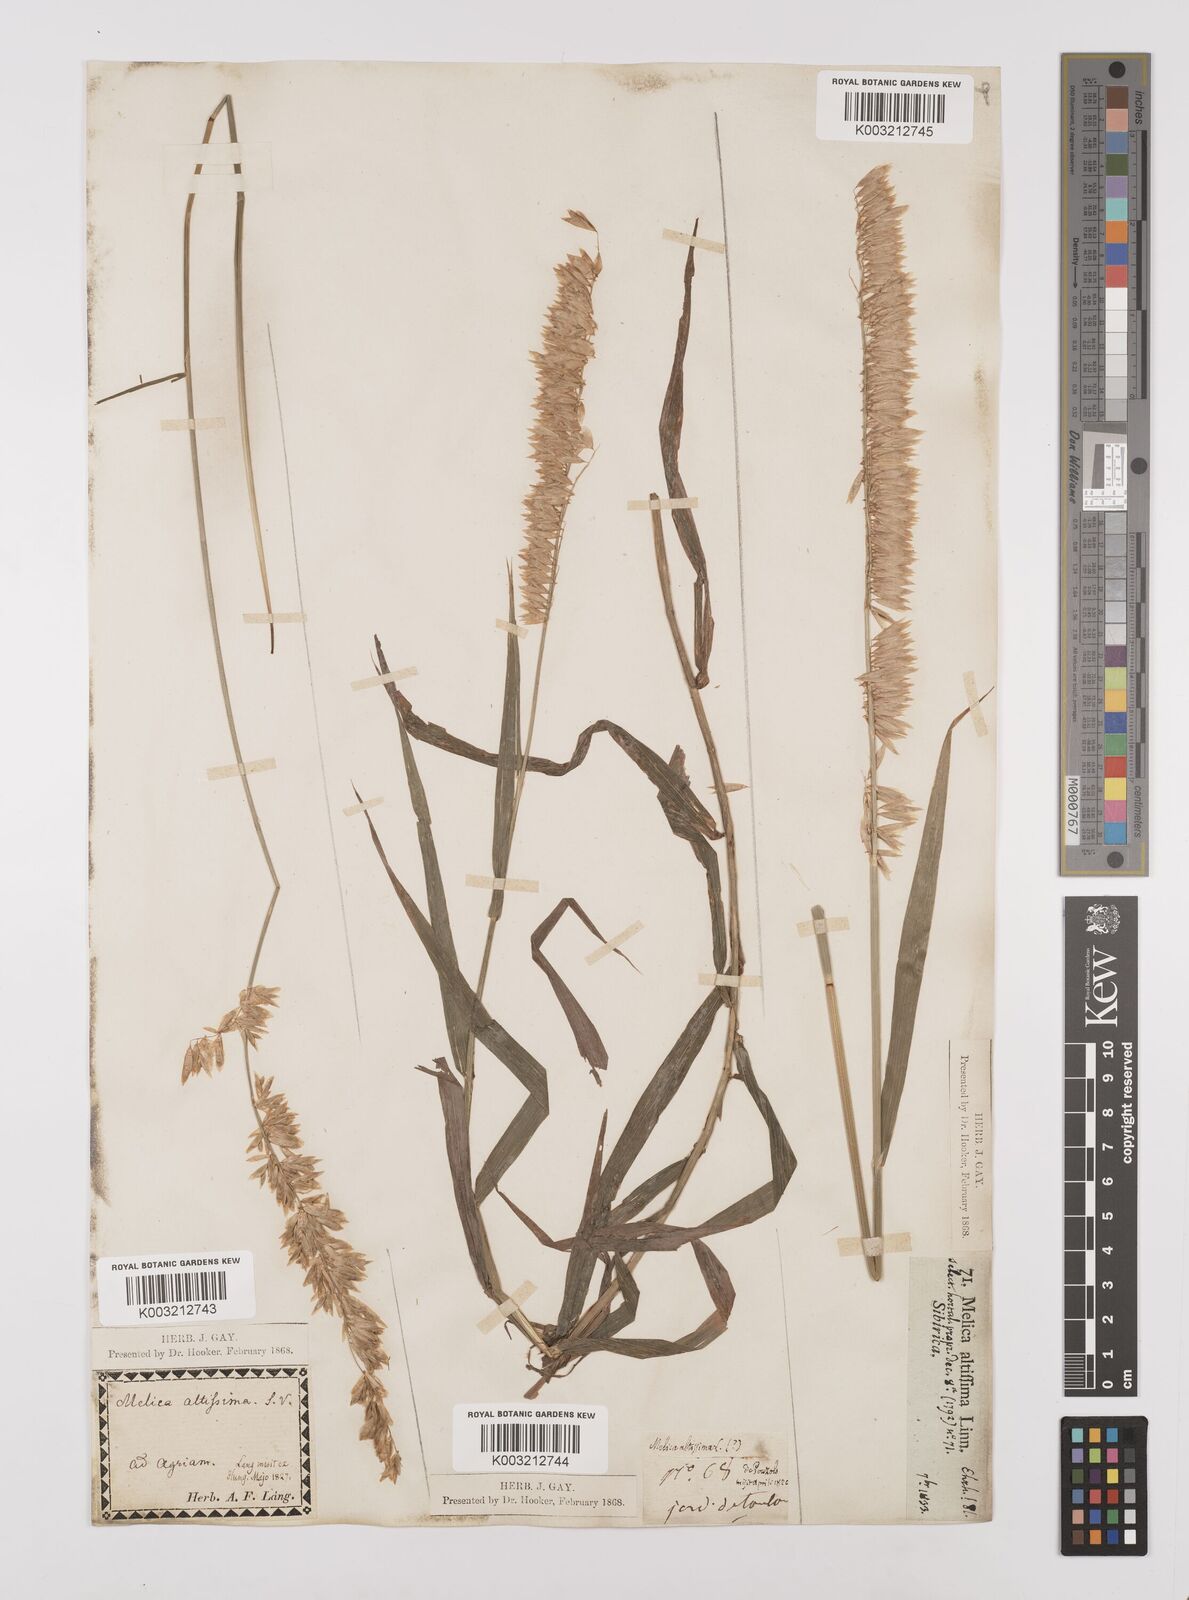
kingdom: Plantae
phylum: Tracheophyta
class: Liliopsida
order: Poales
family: Poaceae
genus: Melica
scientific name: Melica altissima
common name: Siberian melicgrass
